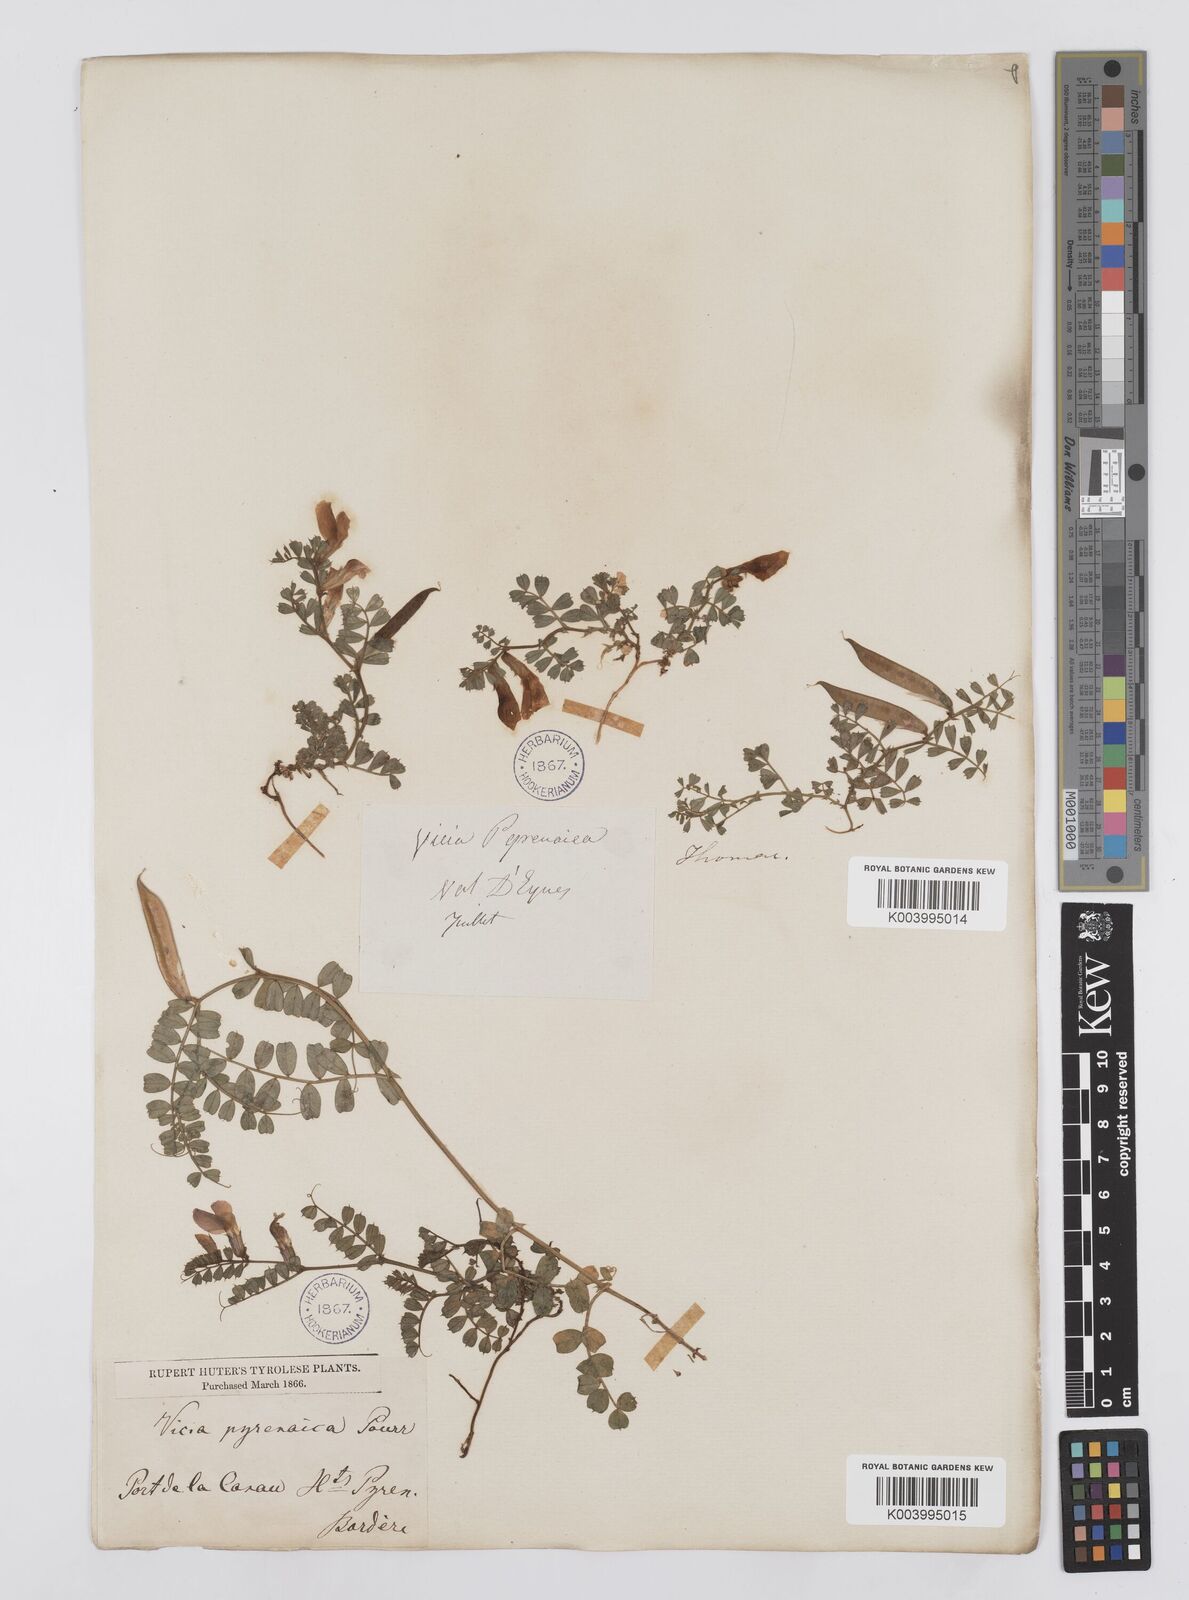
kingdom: Plantae
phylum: Tracheophyta
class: Magnoliopsida
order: Fabales
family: Fabaceae
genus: Vicia
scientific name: Vicia pyrenaica
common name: Pyrenean vetch
